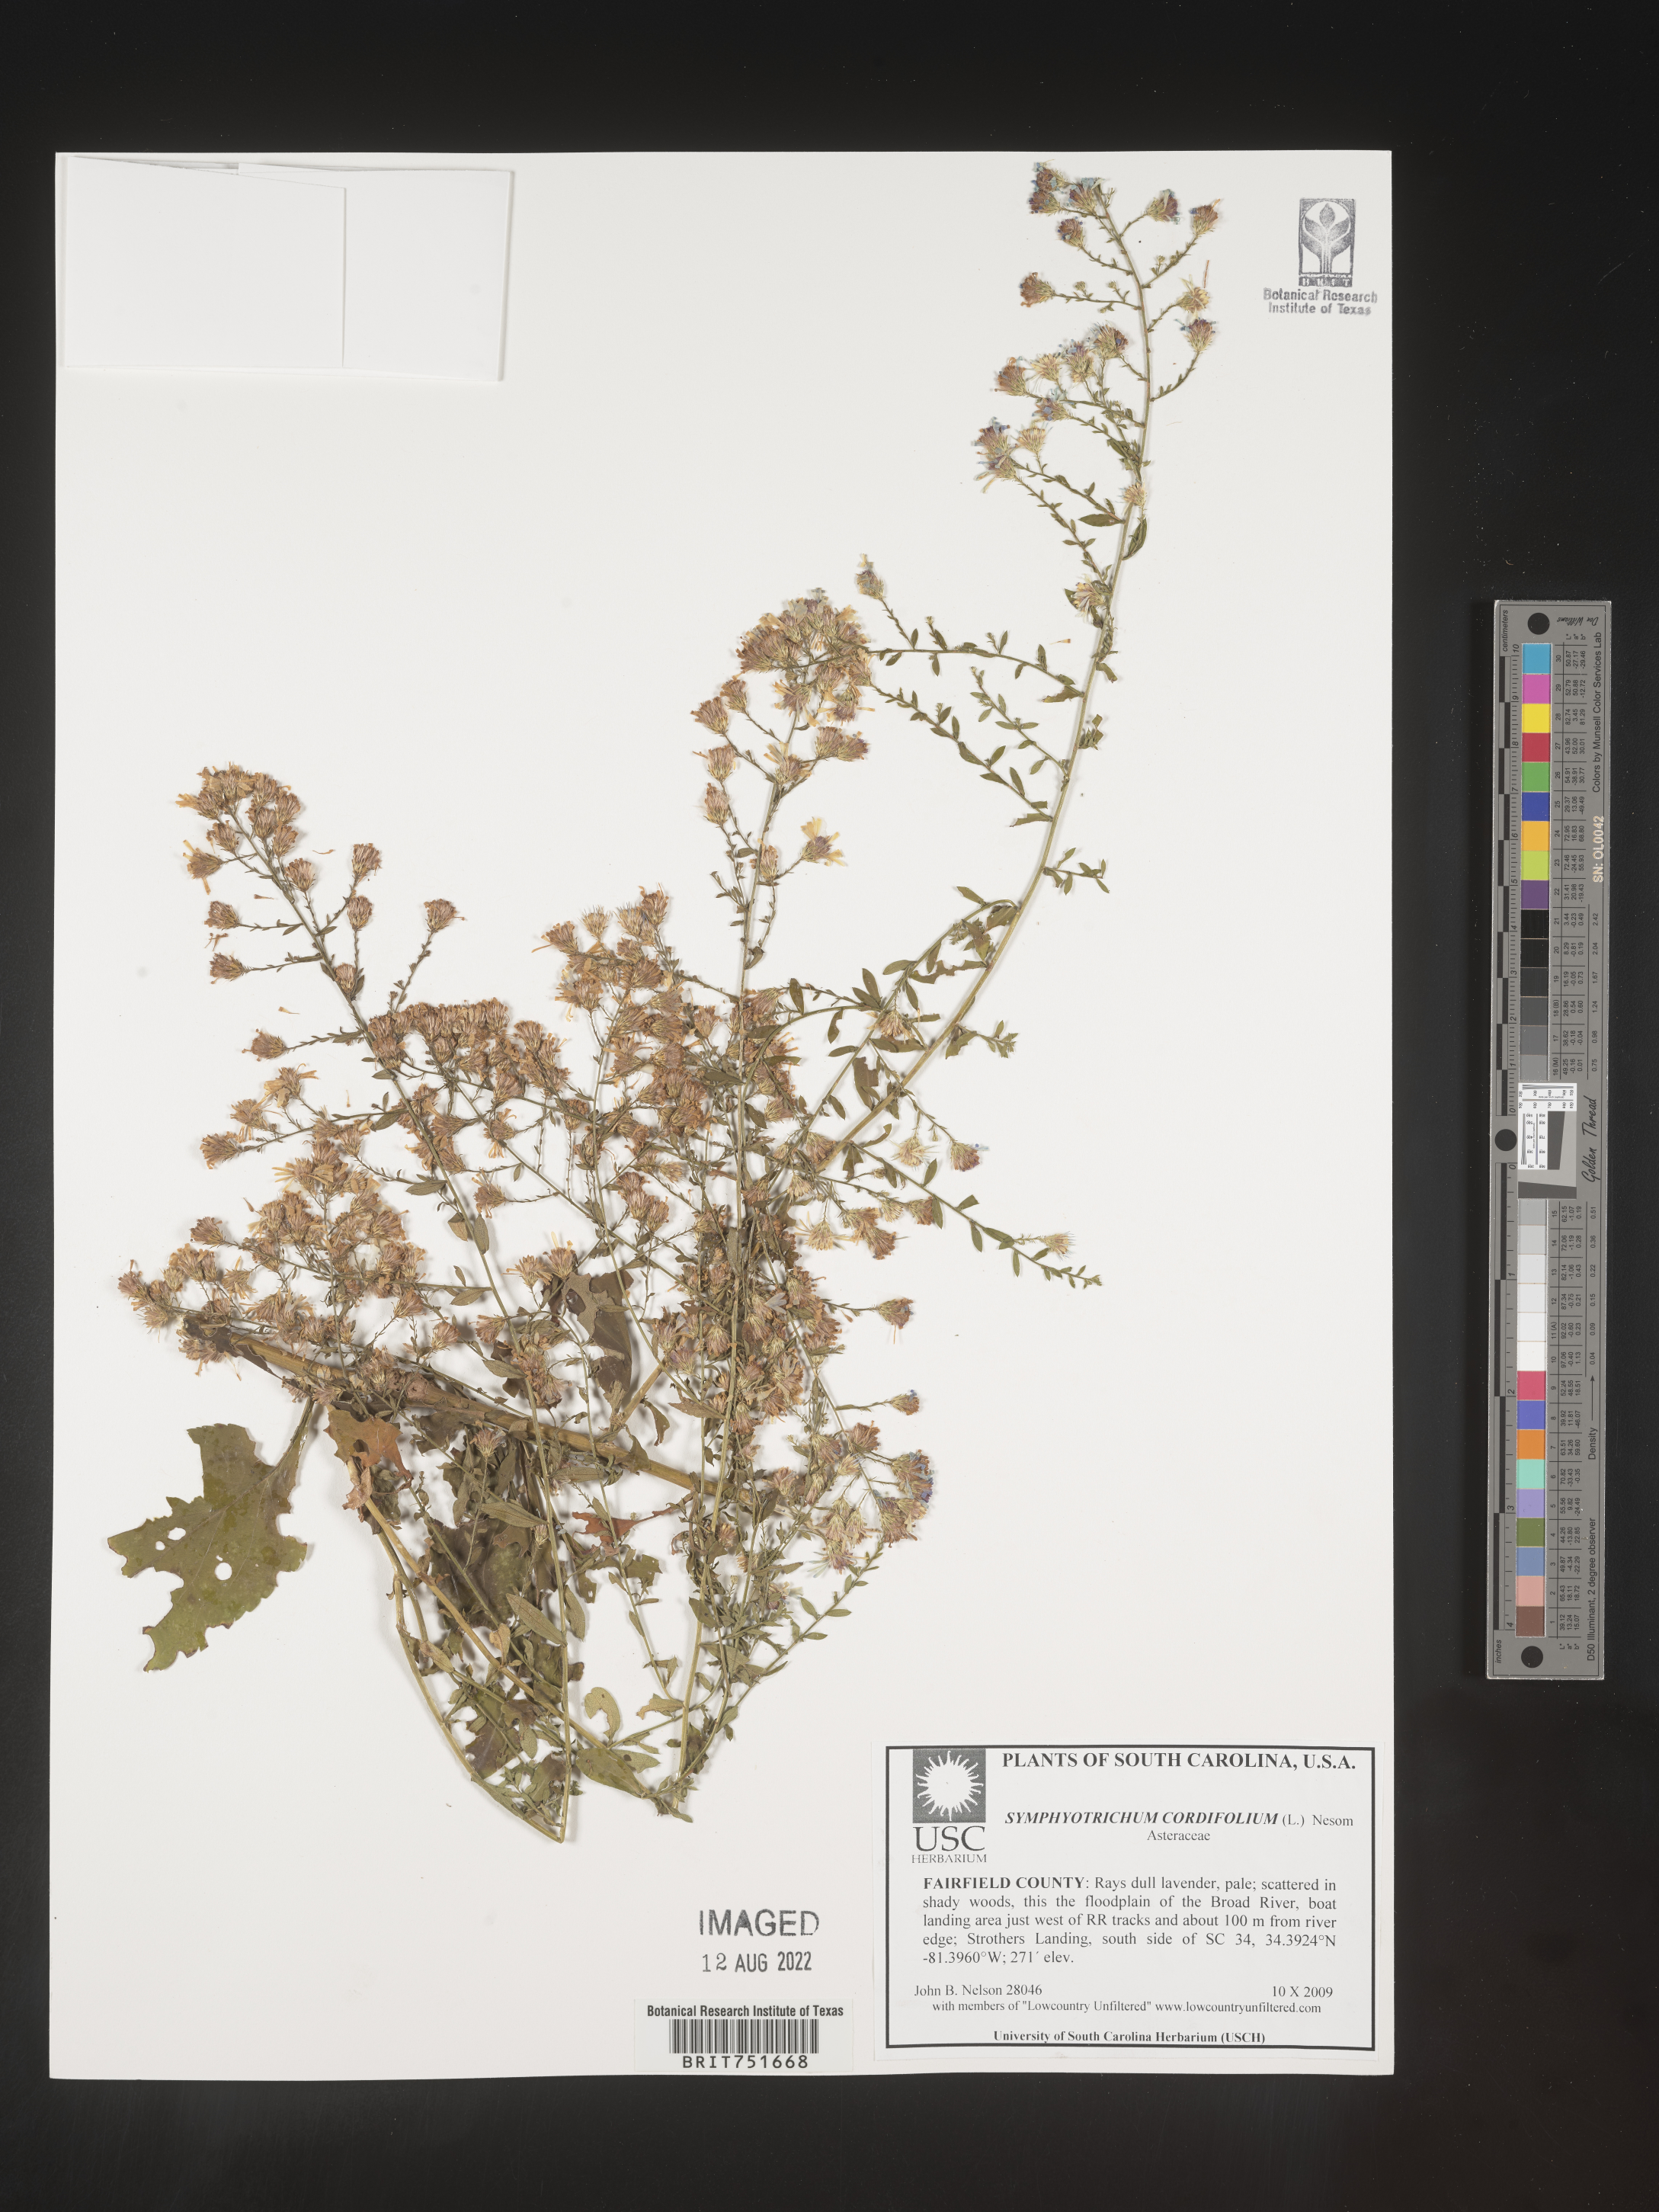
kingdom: Plantae
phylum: Tracheophyta
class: Magnoliopsida
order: Asterales
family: Asteraceae
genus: Symphyotrichum
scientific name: Symphyotrichum cordifolium
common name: Beeweed
